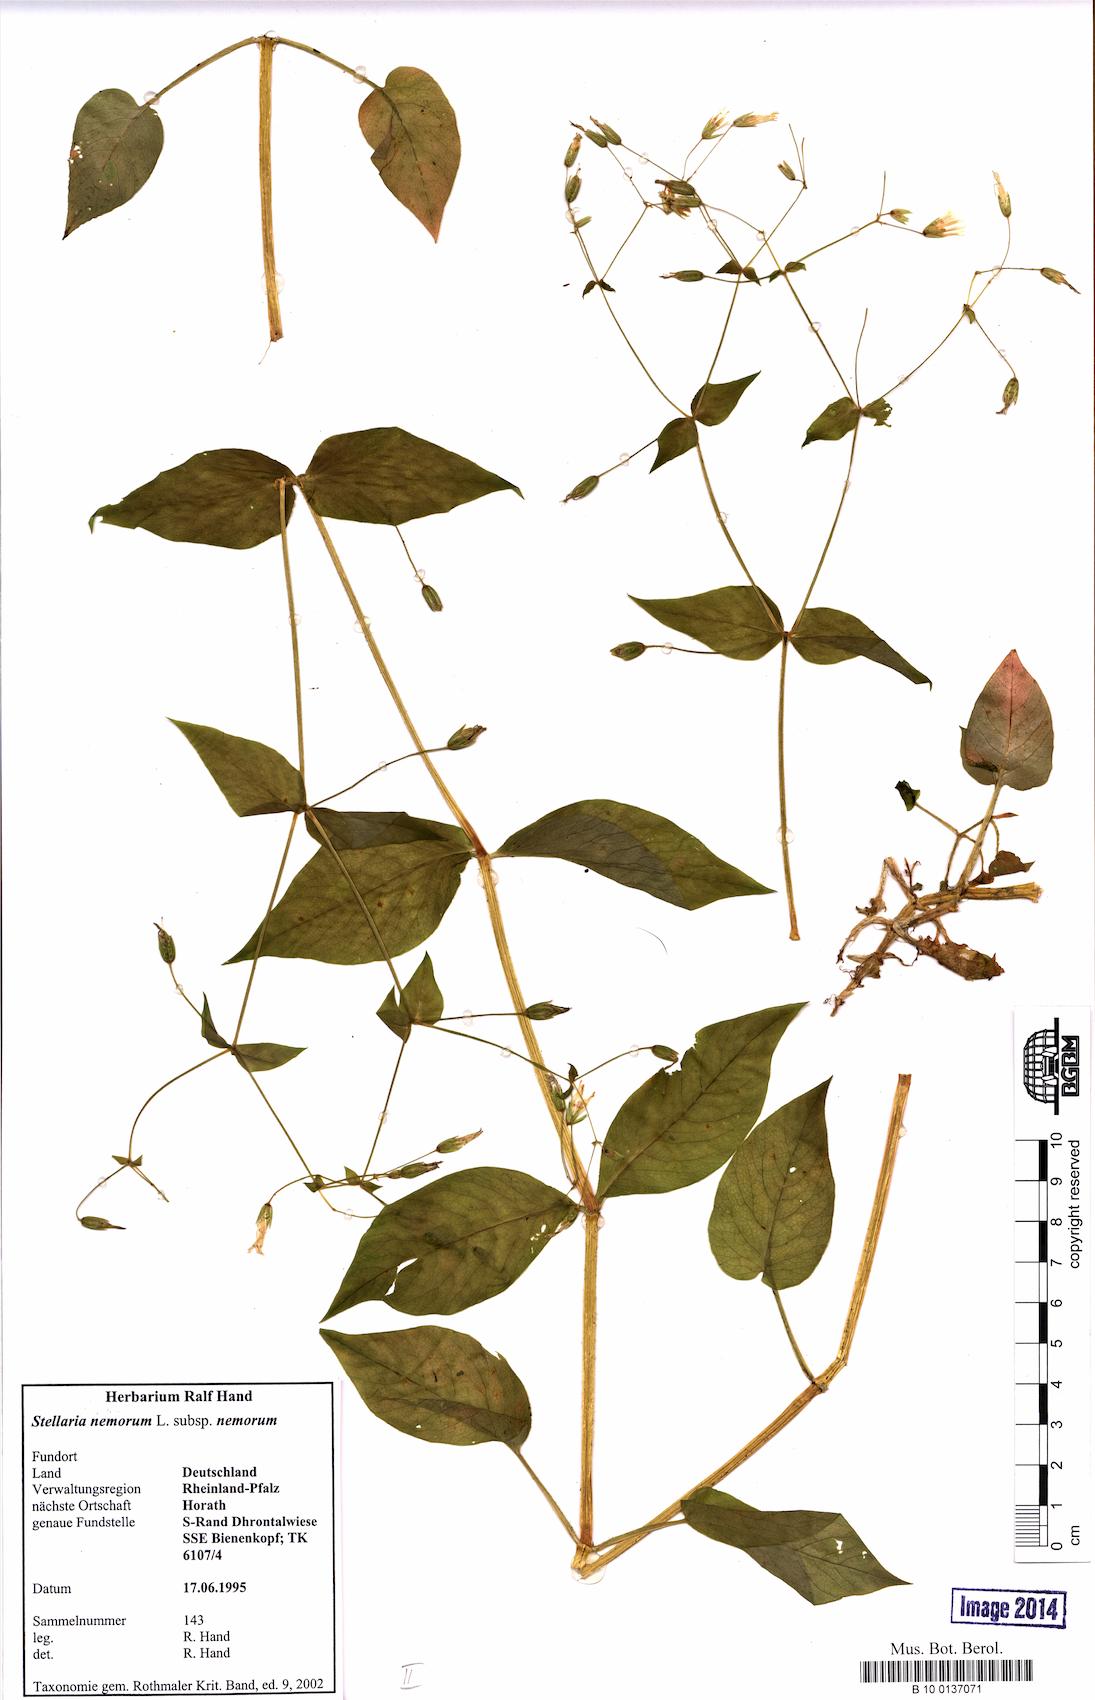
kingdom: Plantae
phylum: Tracheophyta
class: Magnoliopsida
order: Caryophyllales
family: Caryophyllaceae
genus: Stellaria
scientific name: Stellaria nemorum
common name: Wood stitchwort
